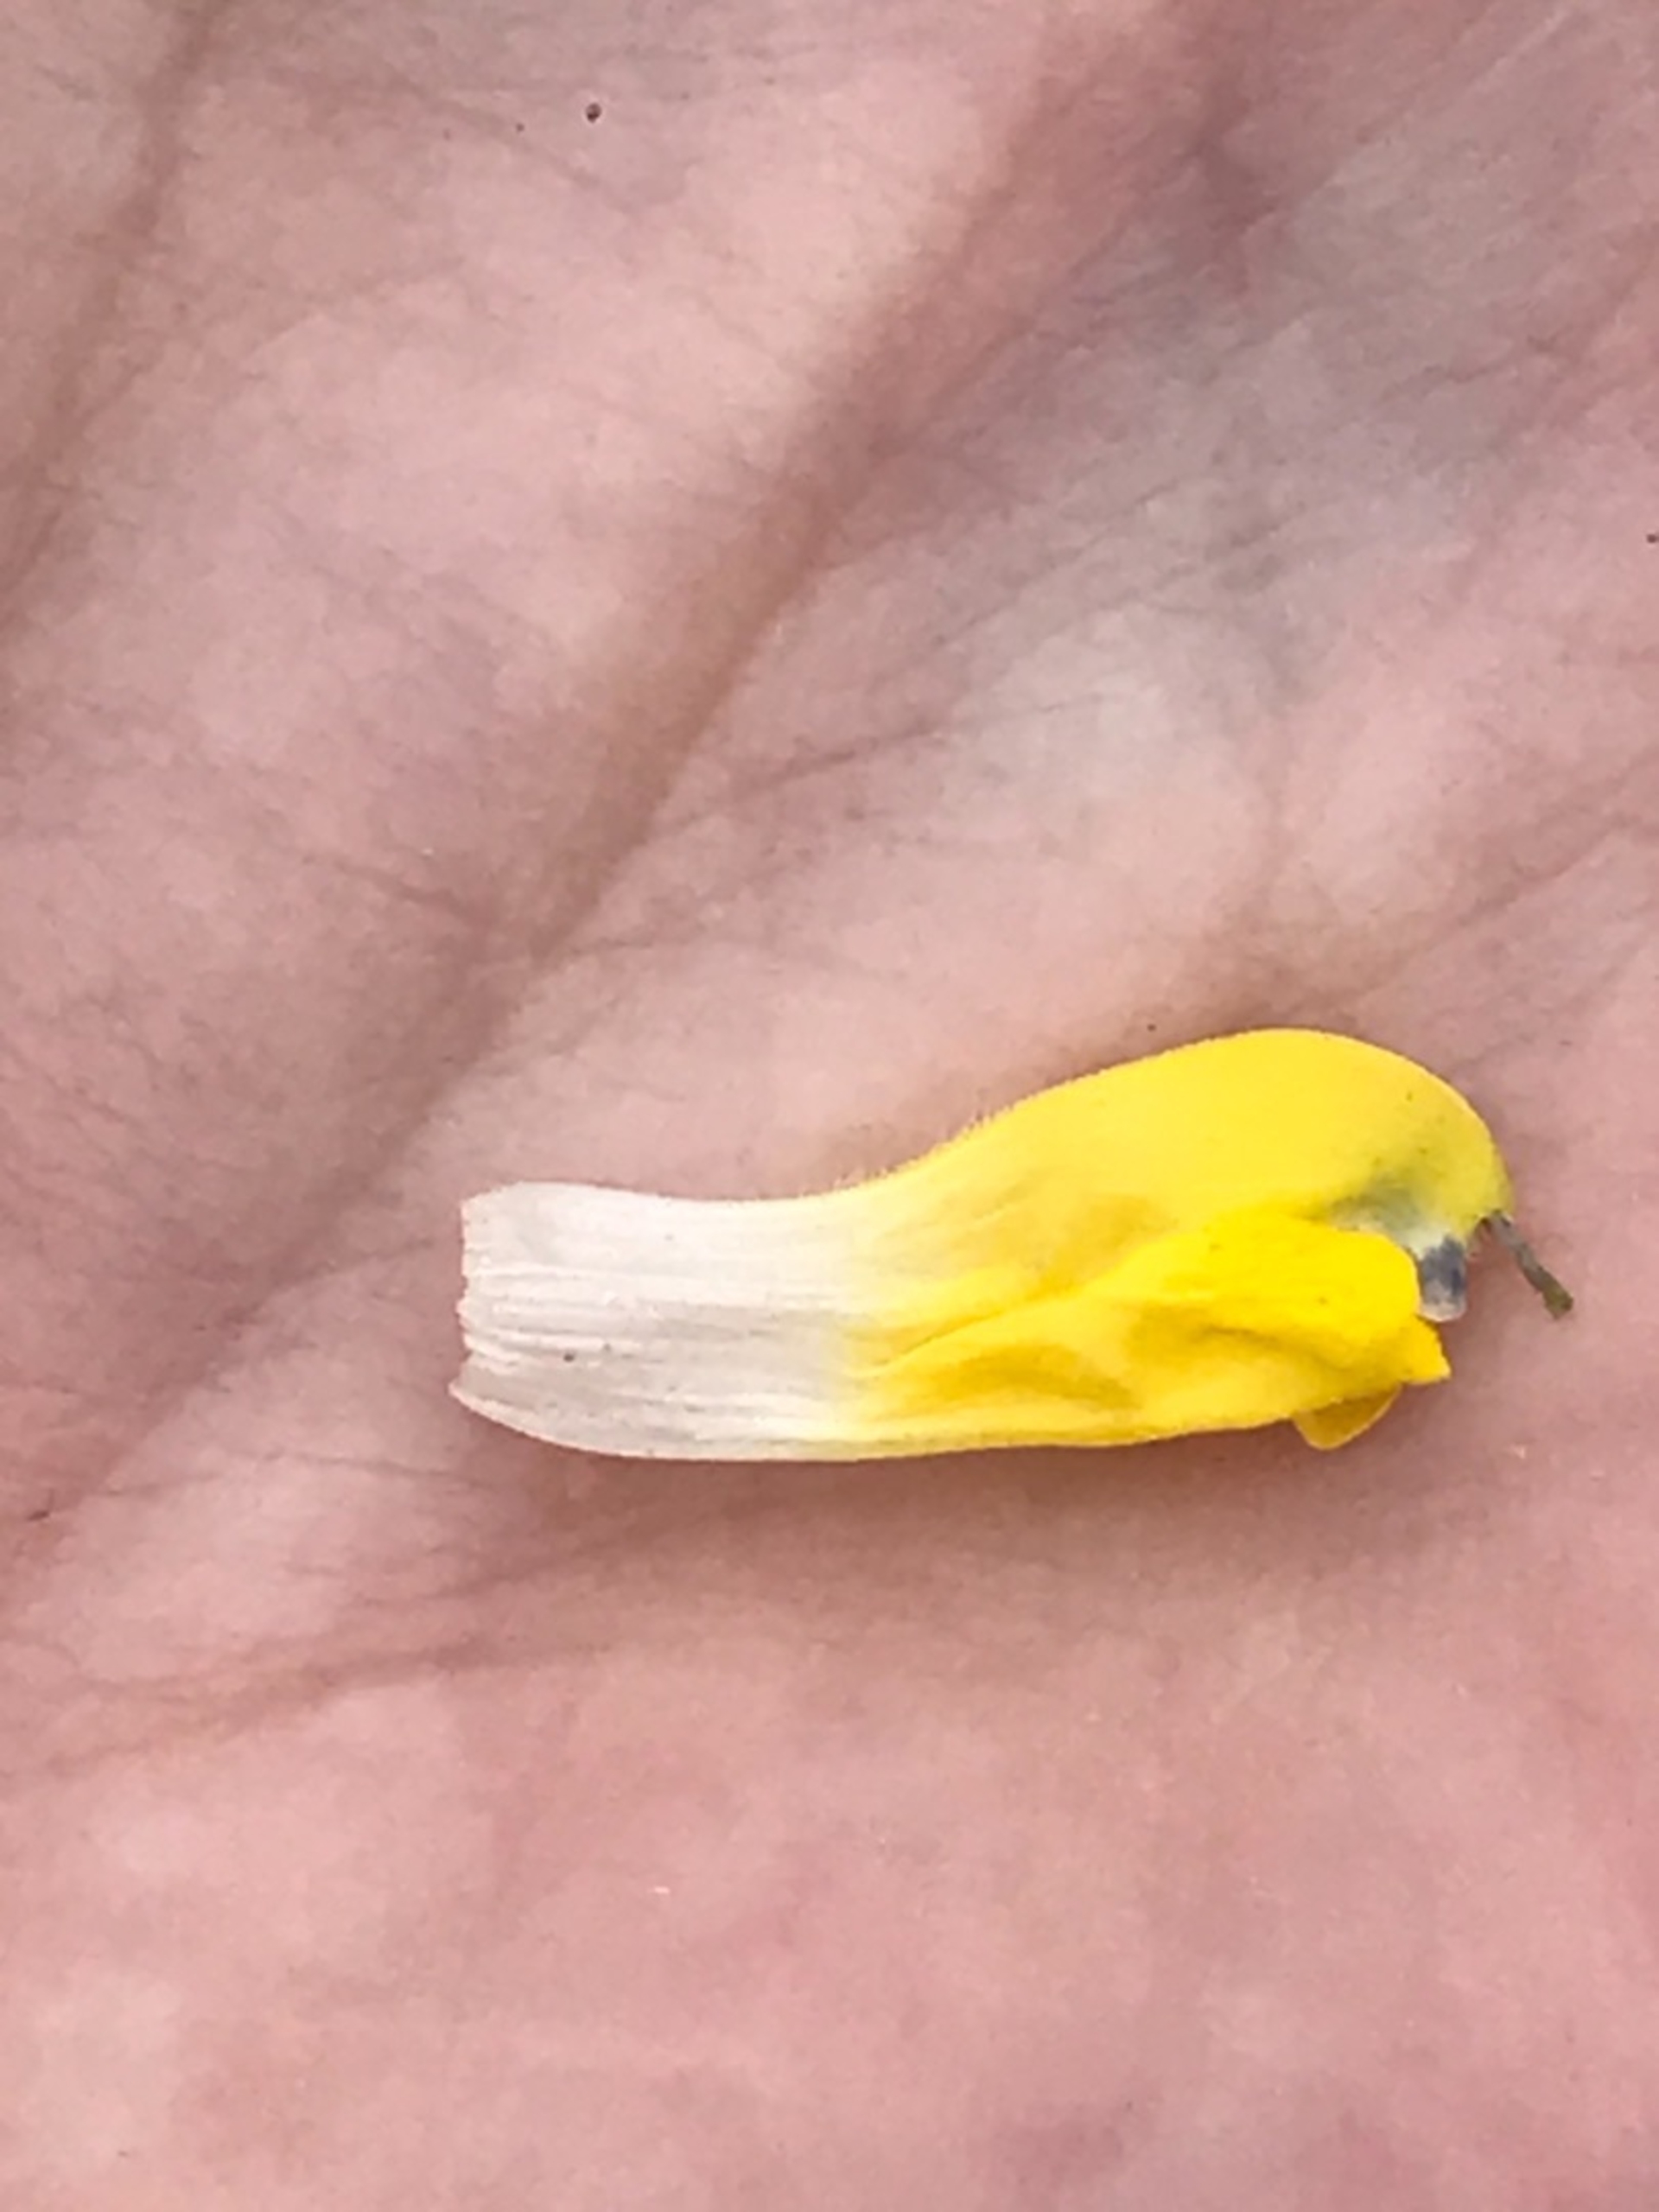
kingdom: Plantae
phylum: Tracheophyta
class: Magnoliopsida
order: Lamiales
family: Orobanchaceae
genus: Rhinanthus
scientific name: Rhinanthus
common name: Stor skjaller
